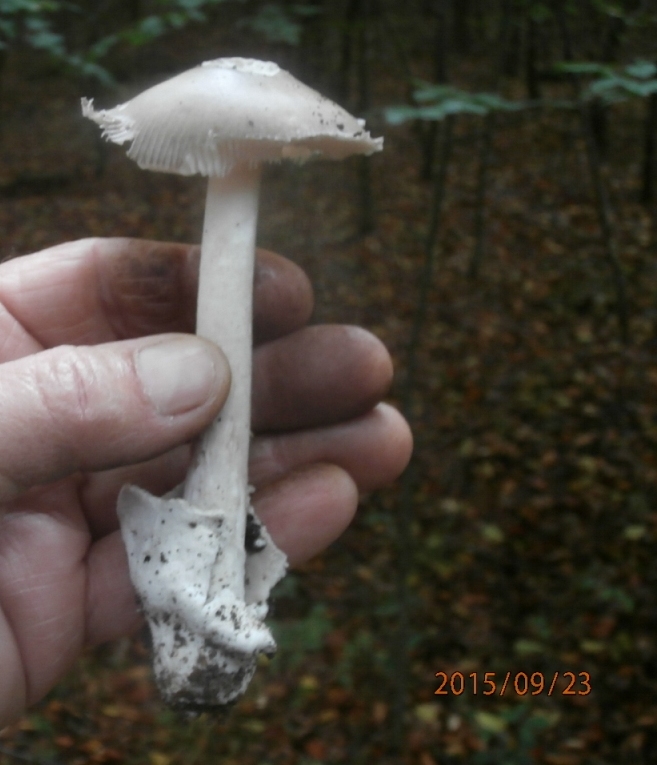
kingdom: Fungi
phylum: Basidiomycota
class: Agaricomycetes
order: Agaricales
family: Amanitaceae
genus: Amanita
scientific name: Amanita vaginata
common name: grå kam-fluesvamp
